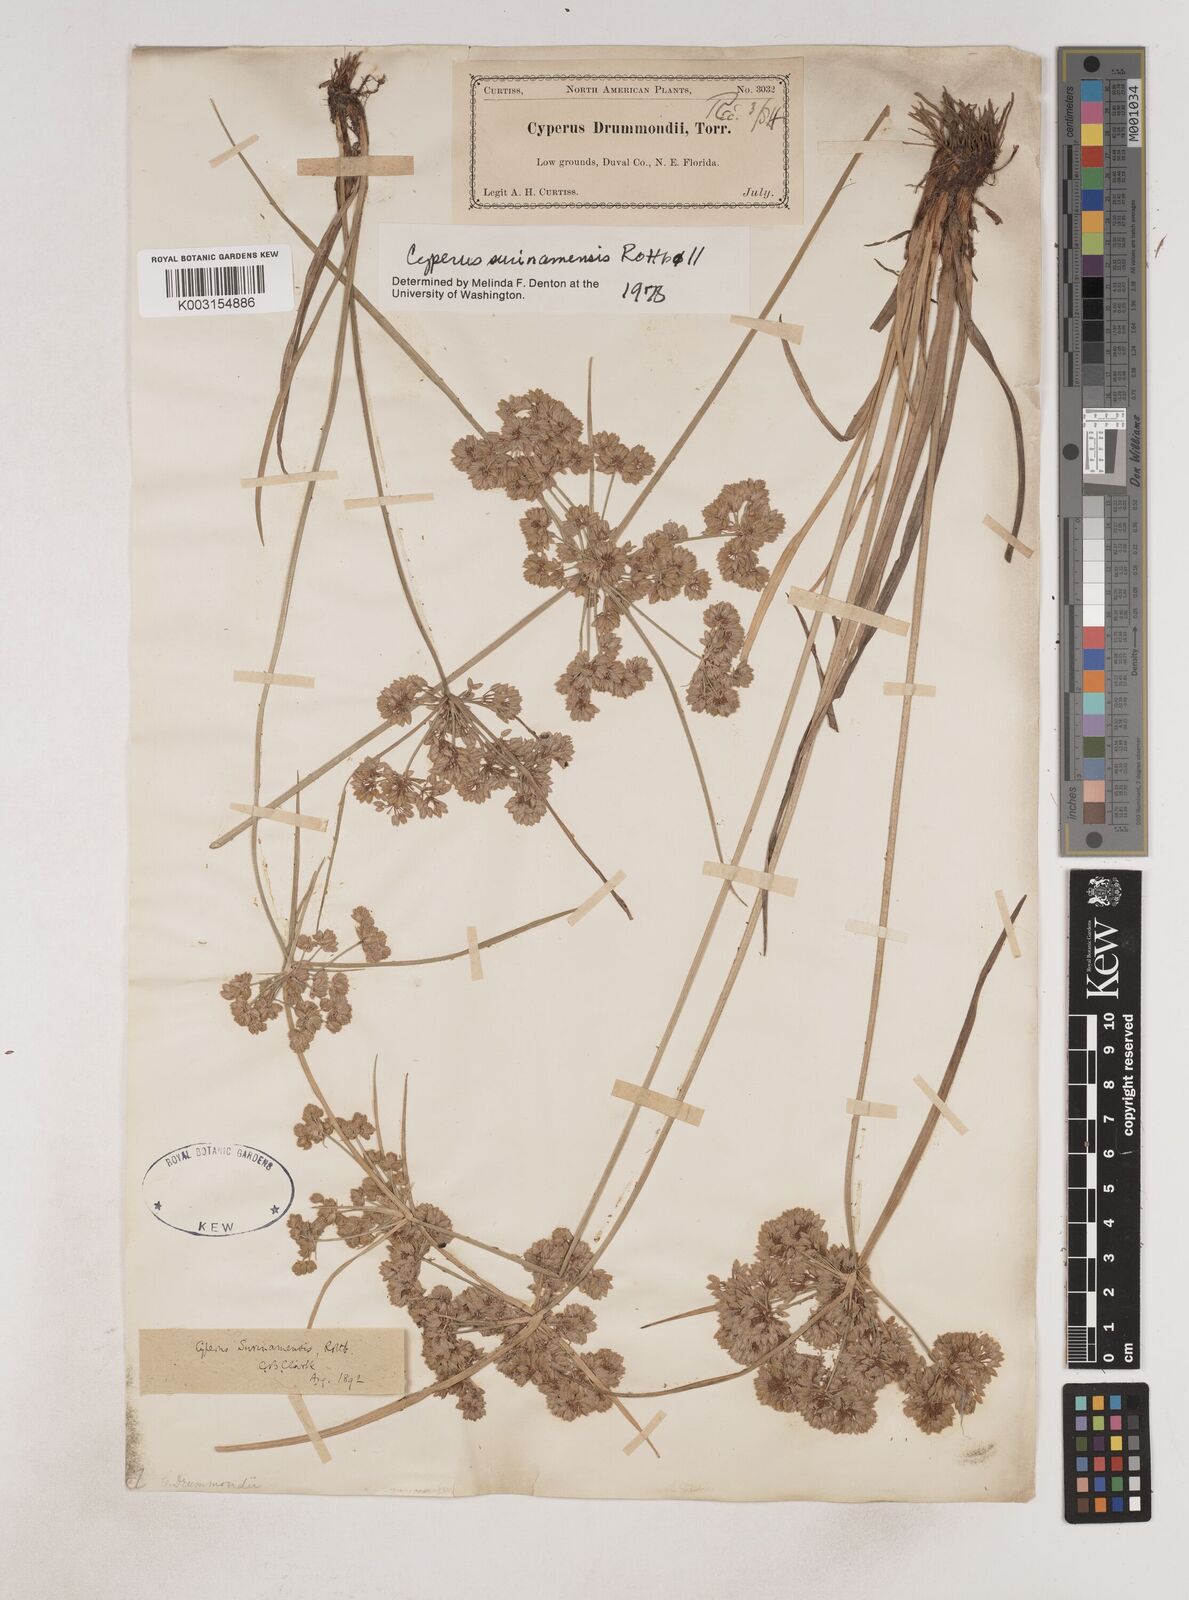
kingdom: Plantae
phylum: Tracheophyta
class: Liliopsida
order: Poales
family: Cyperaceae
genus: Cyperus
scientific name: Cyperus surinamensis
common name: Tropical flat sedge
